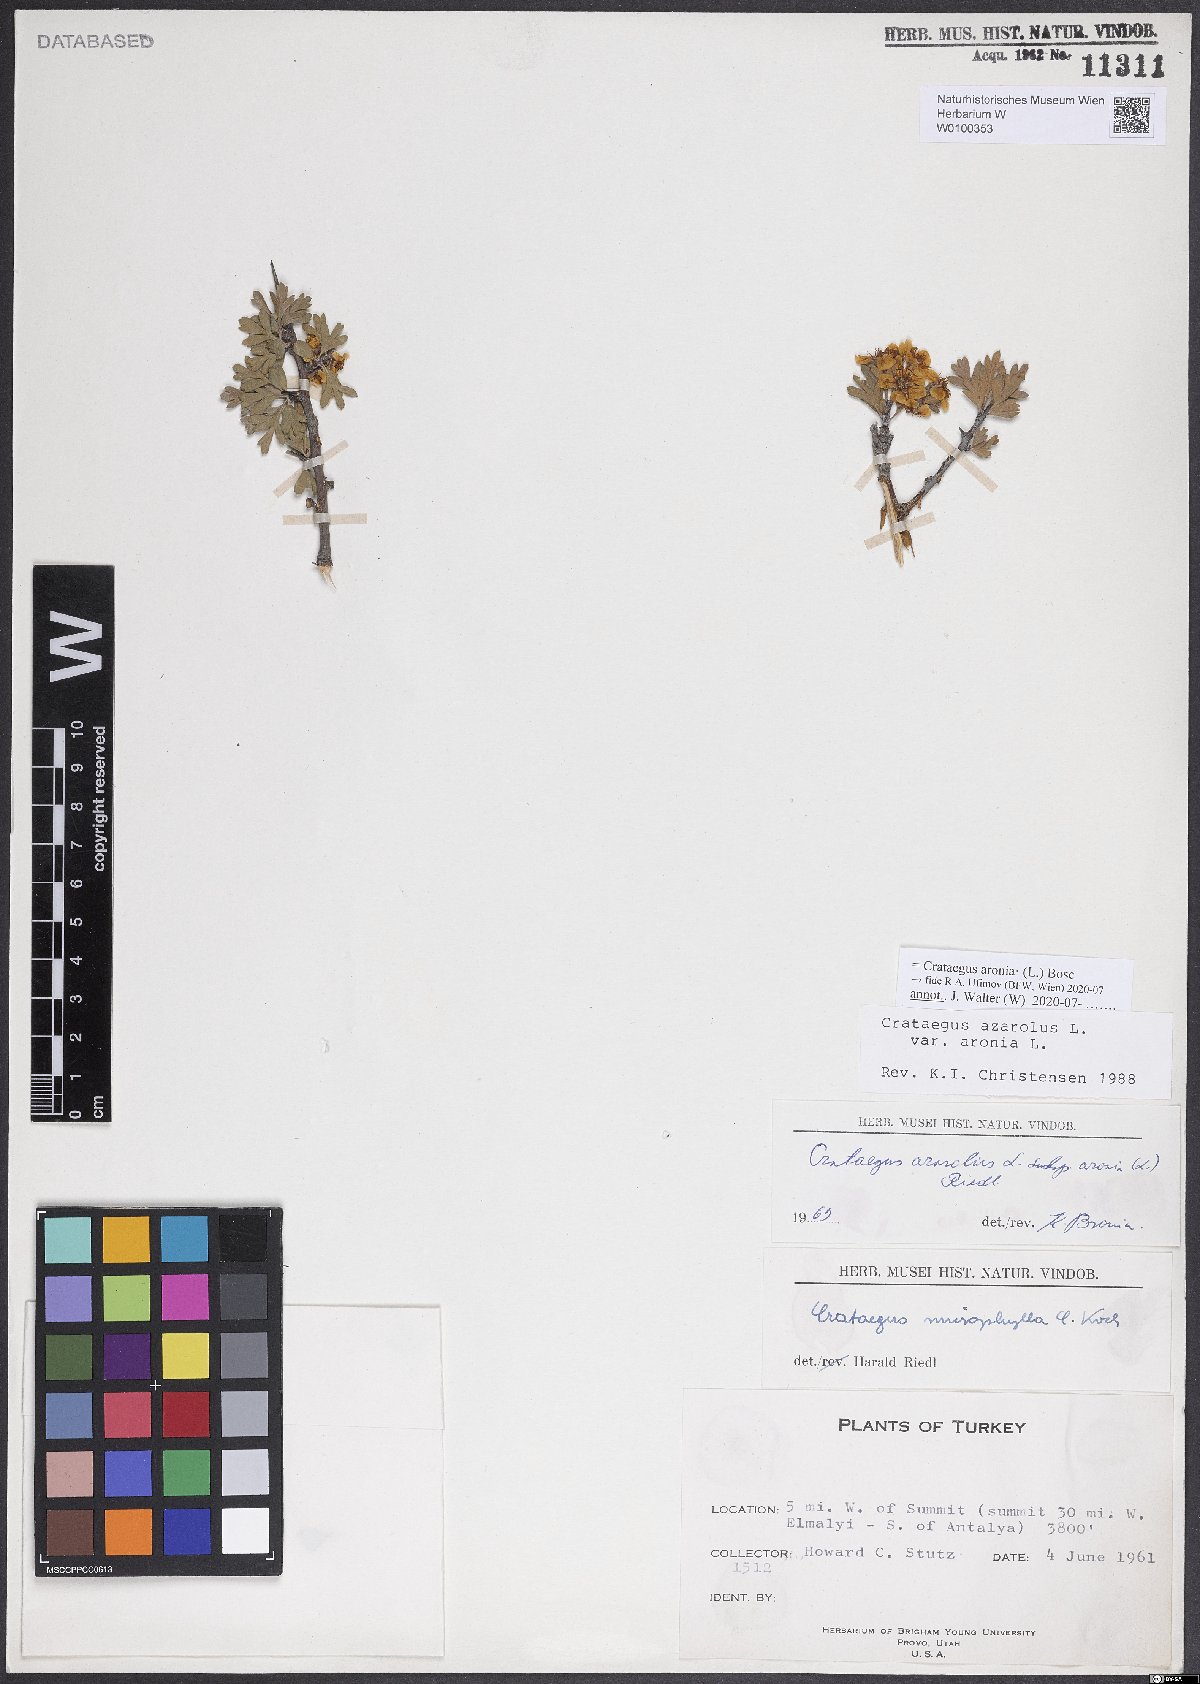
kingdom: Plantae
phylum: Tracheophyta
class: Magnoliopsida
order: Rosales
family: Rosaceae
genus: Crataegus
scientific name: Crataegus azarolus
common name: Azarole
